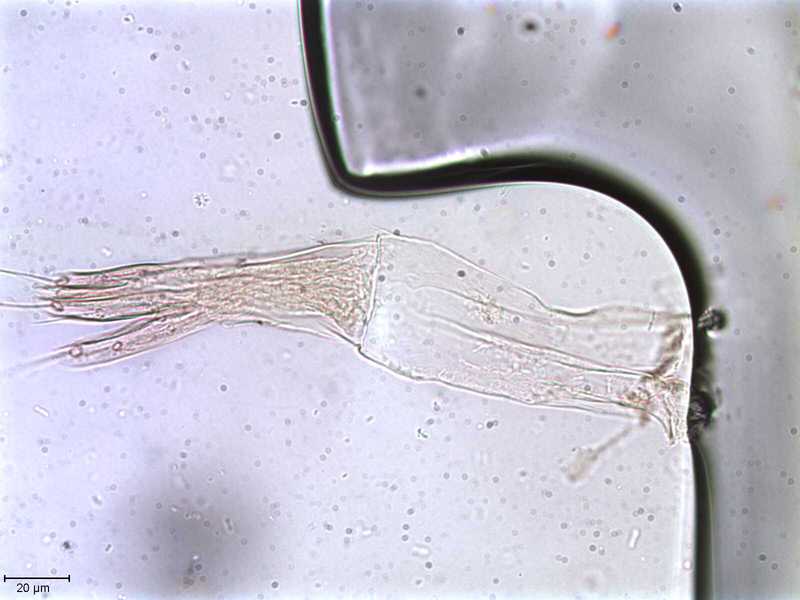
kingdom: Animalia
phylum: Arthropoda
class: Arachnida
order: Sarcoptiformes
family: Tegoribatidae
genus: Plakoribates
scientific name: Plakoribates multicuspidatus
